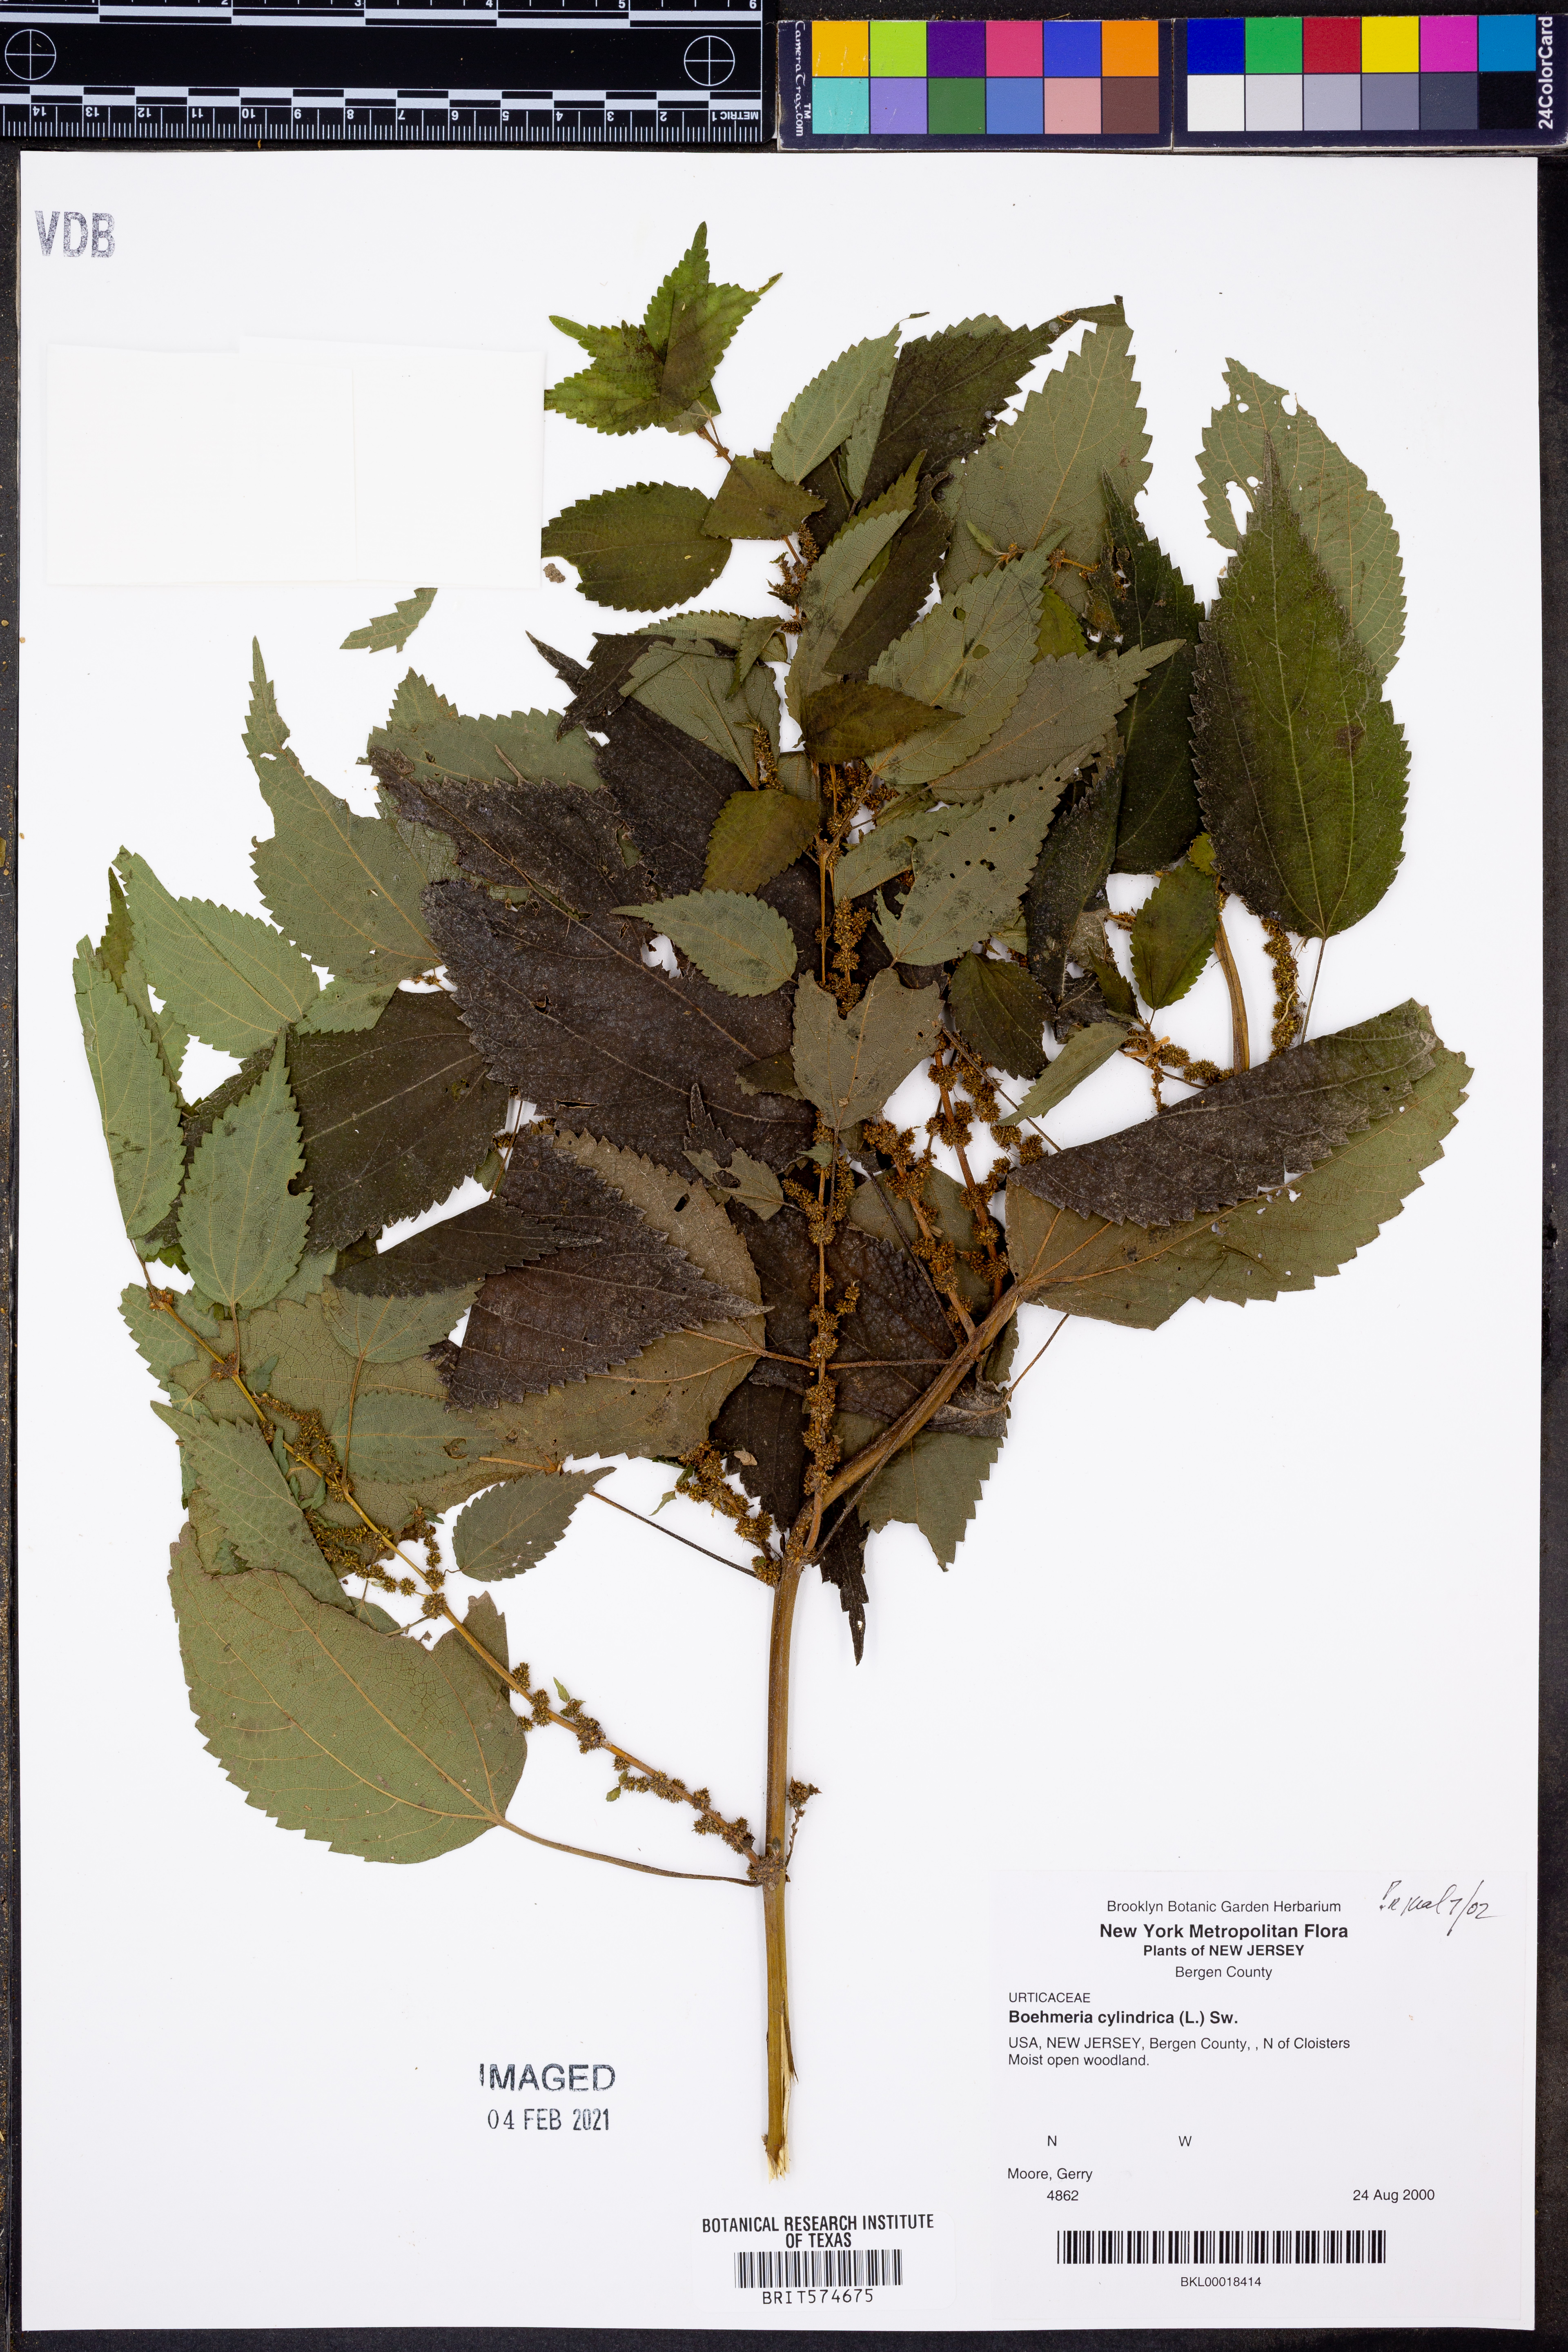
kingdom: Plantae
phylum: Tracheophyta
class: Magnoliopsida
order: Rosales
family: Urticaceae
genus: Boehmeria
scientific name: Boehmeria cylindrica
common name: Bog-hemp
